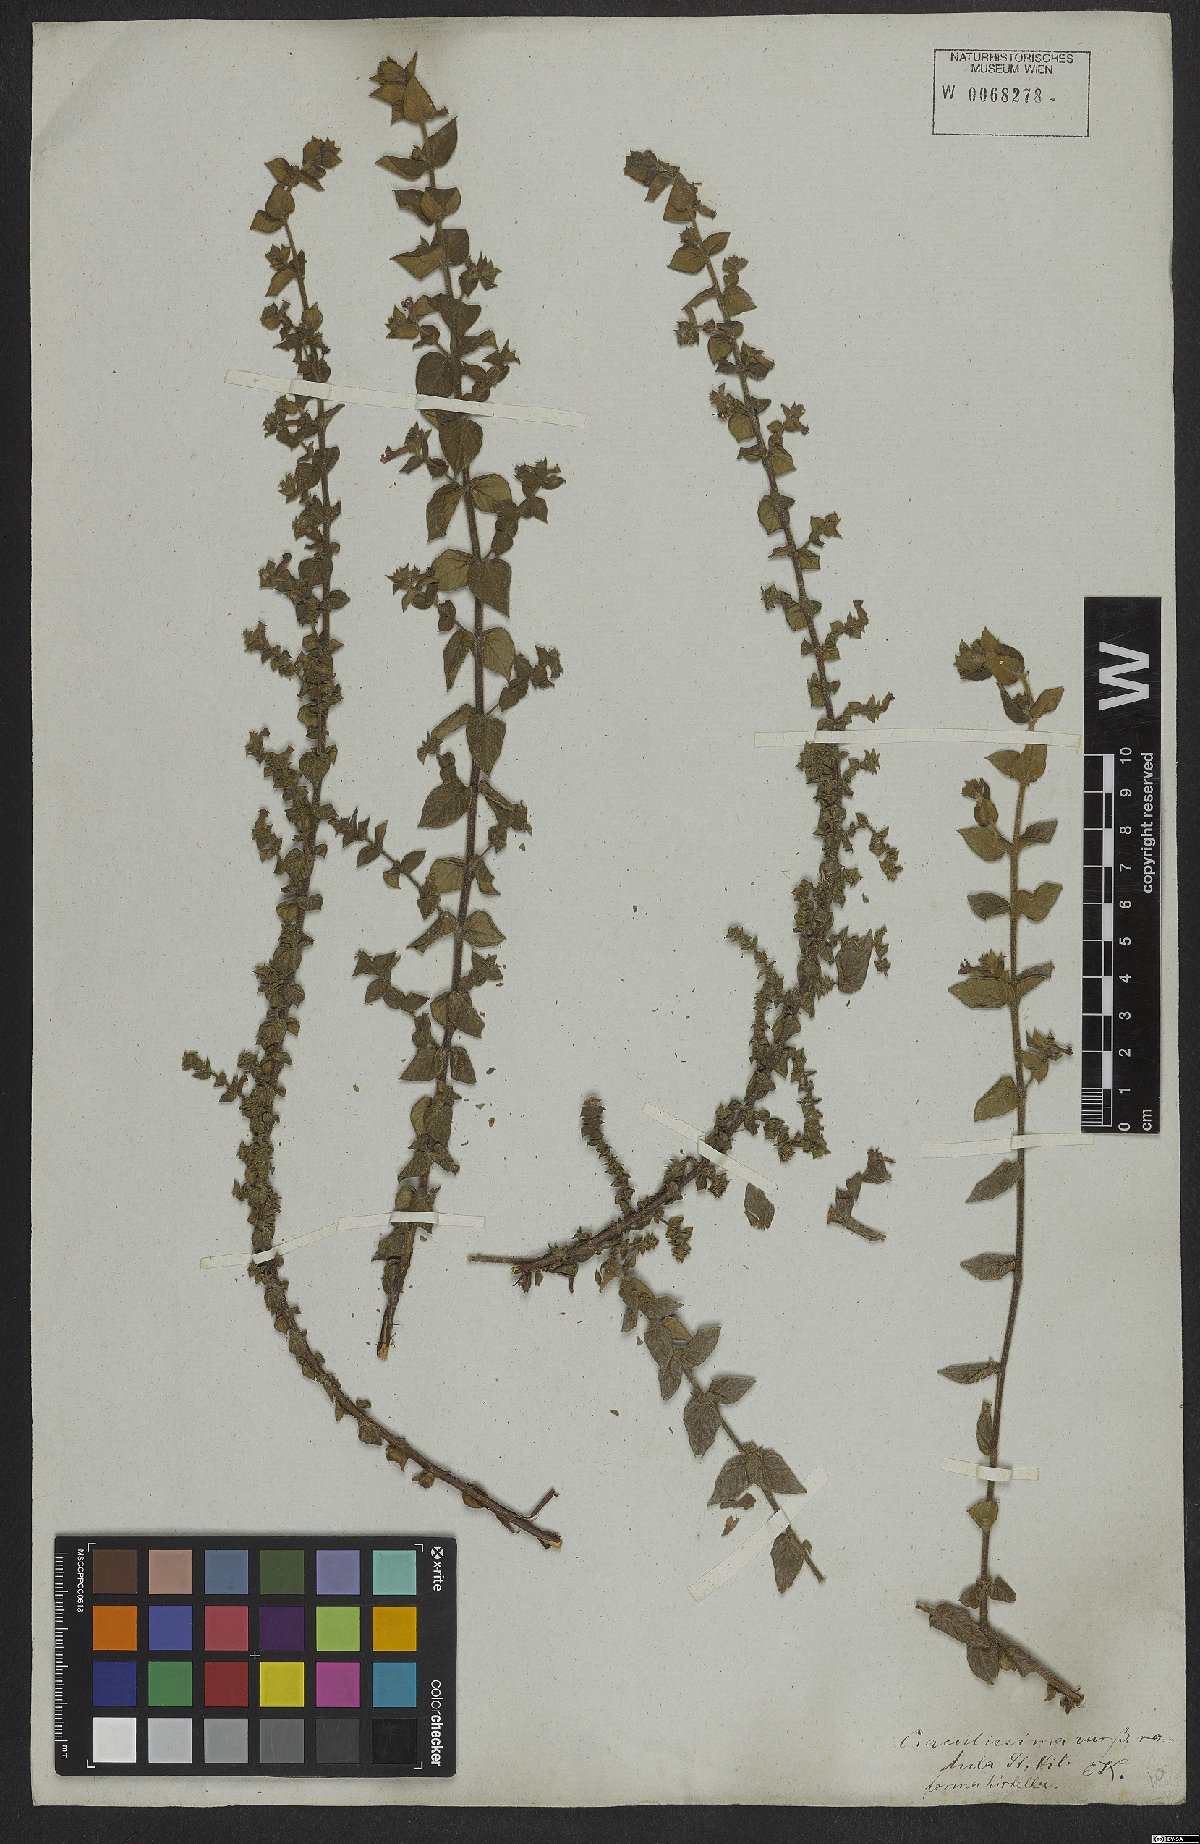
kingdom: Plantae
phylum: Tracheophyta
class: Magnoliopsida
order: Myrtales
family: Lythraceae
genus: Cuphea
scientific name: Cuphea antisyphilitica
